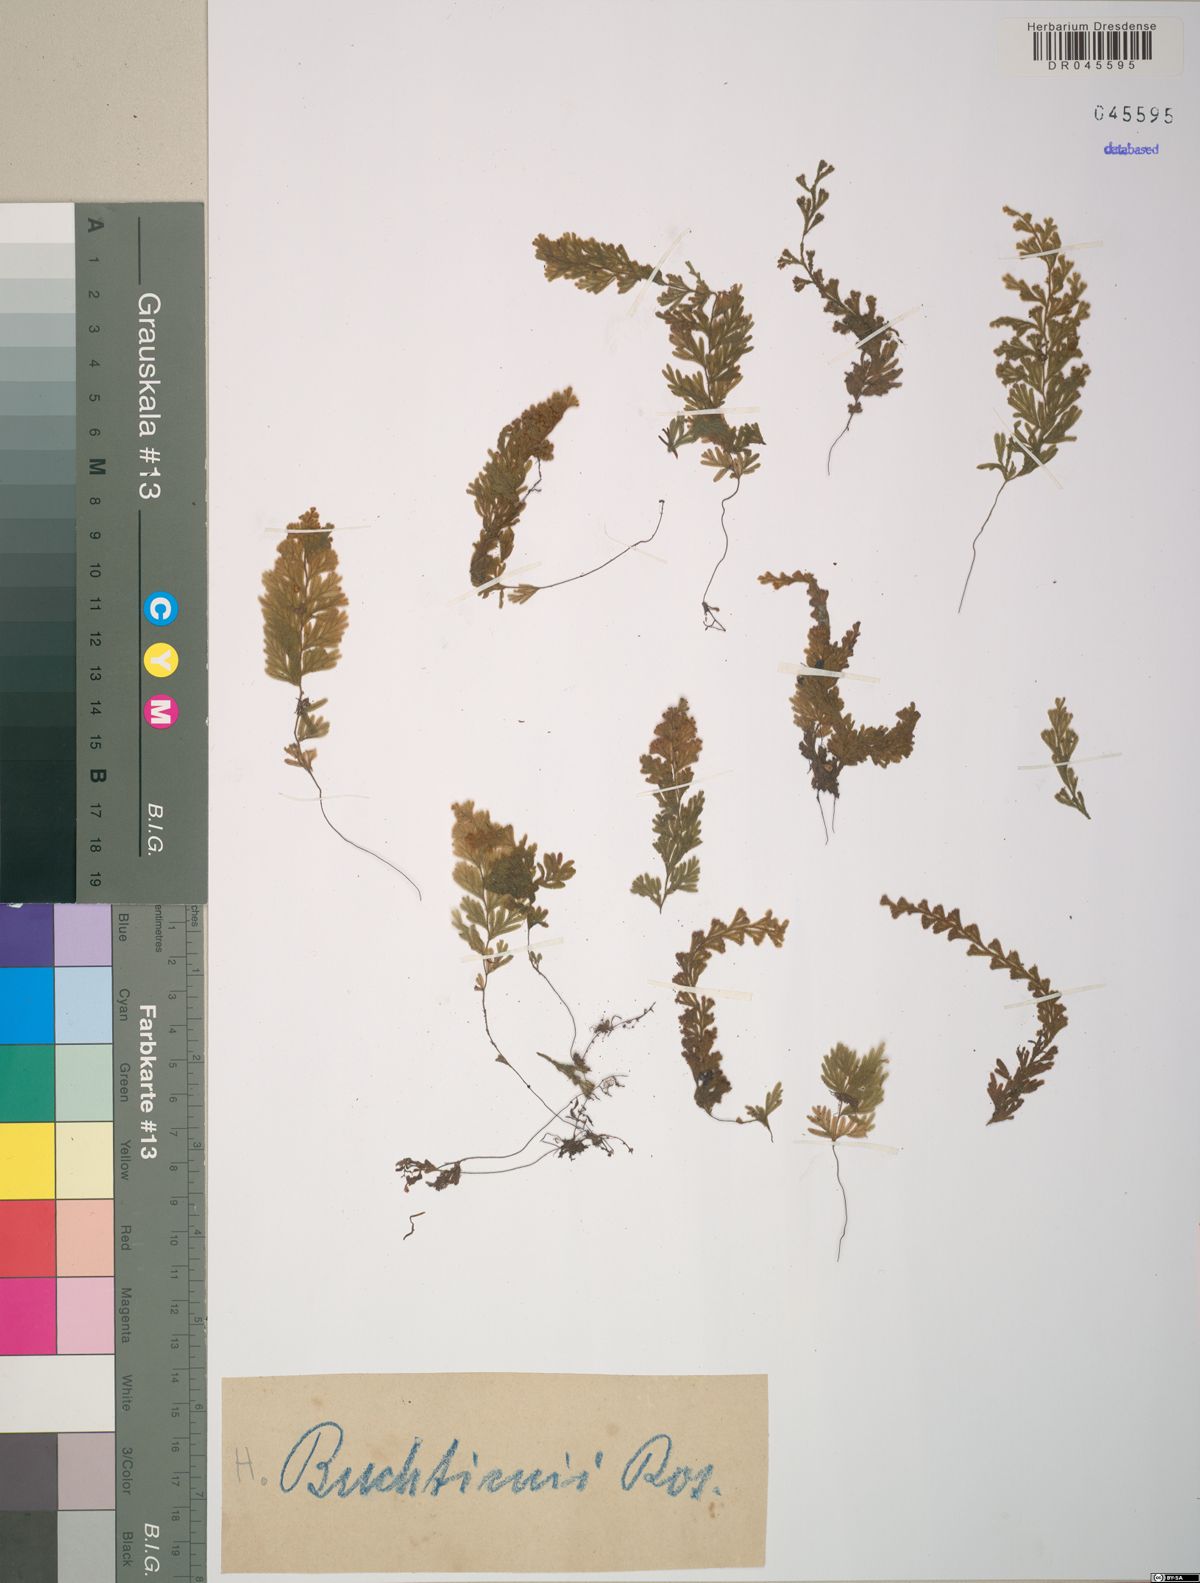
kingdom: Plantae
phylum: Tracheophyta
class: Polypodiopsida
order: Hymenophyllales
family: Hymenophyllaceae
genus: Hymenophyllum
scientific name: Hymenophyllum tegularis
